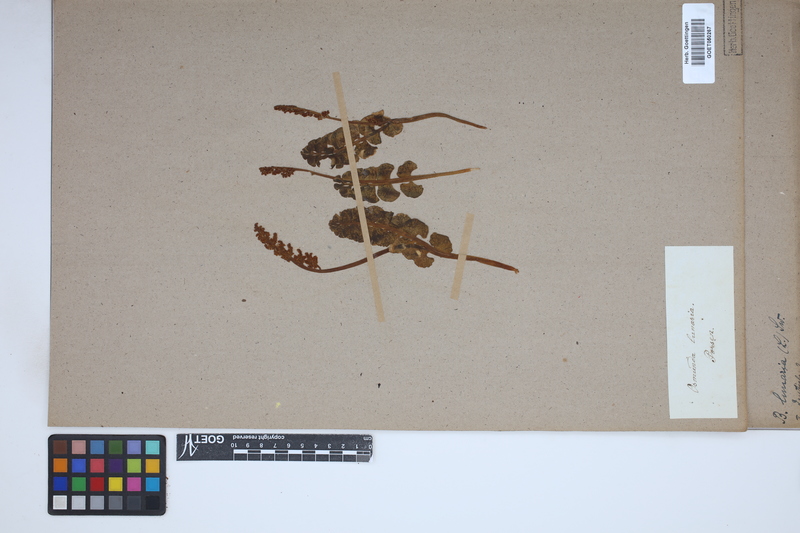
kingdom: Plantae
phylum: Tracheophyta
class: Polypodiopsida
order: Ophioglossales
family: Ophioglossaceae
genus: Botrychium
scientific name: Botrychium lunaria
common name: Moonwort
